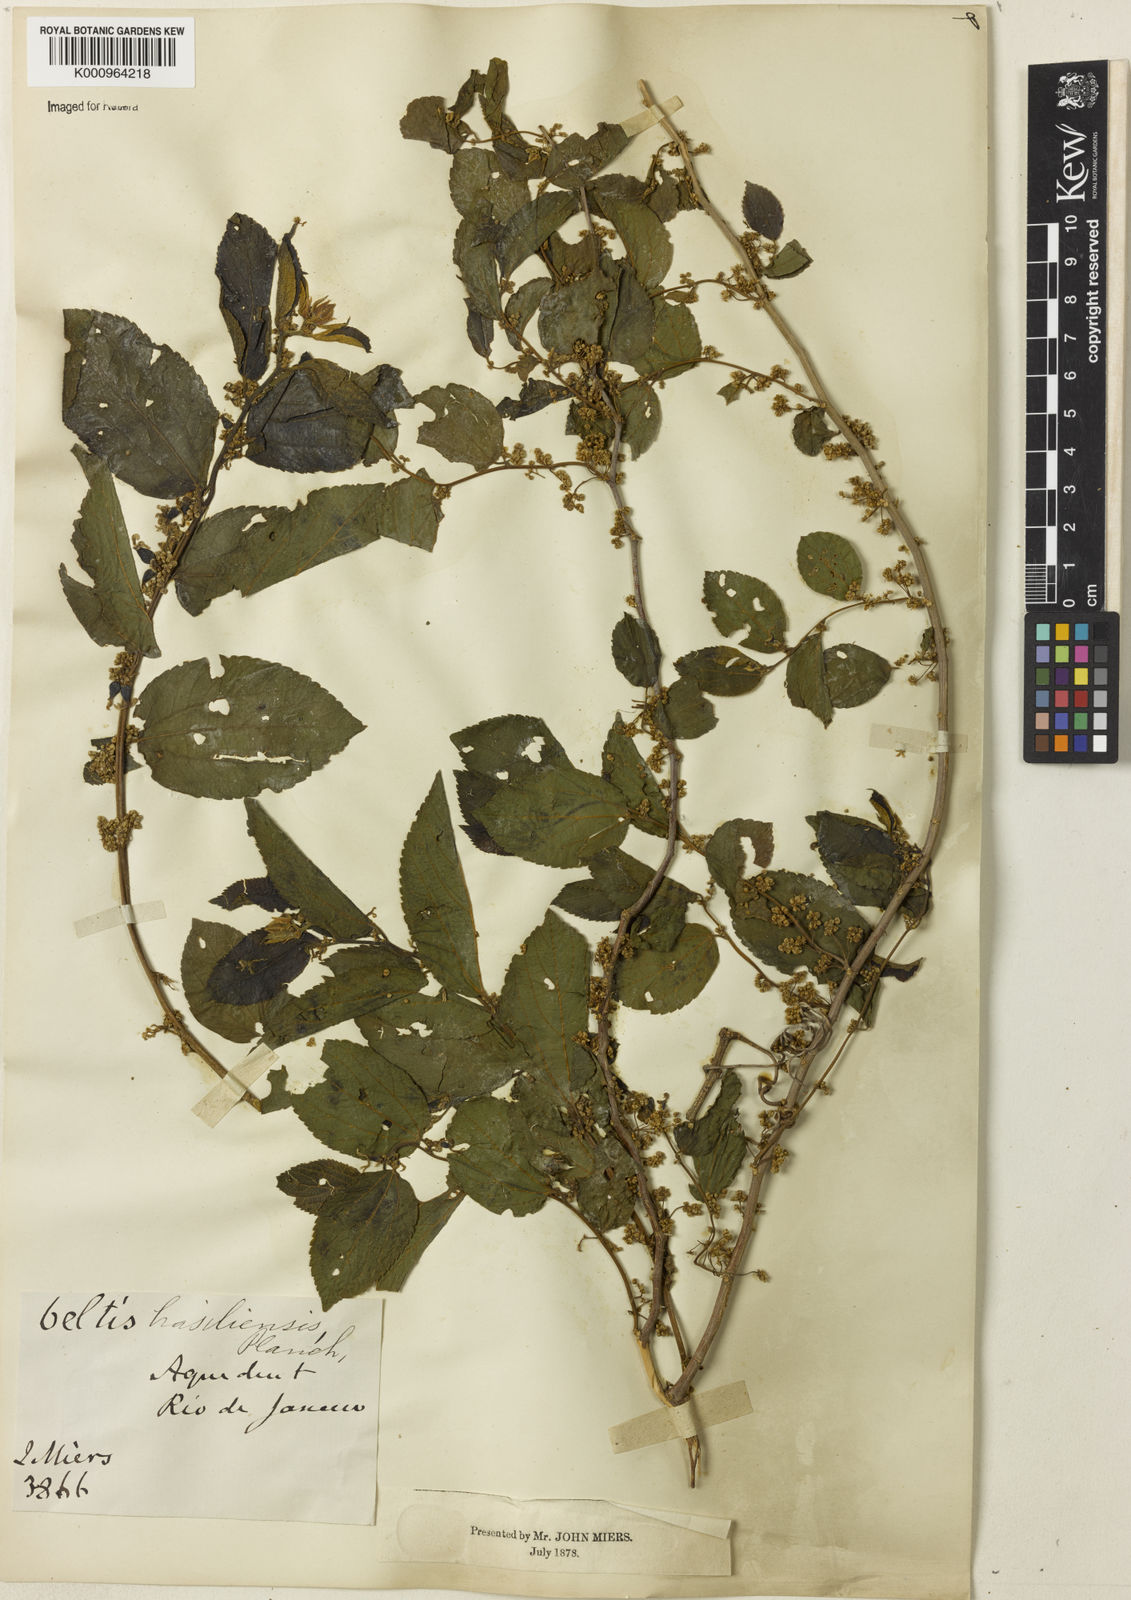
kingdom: Plantae
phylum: Tracheophyta
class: Magnoliopsida
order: Rosales
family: Cannabaceae
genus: Celtis
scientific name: Celtis brasiliensis
